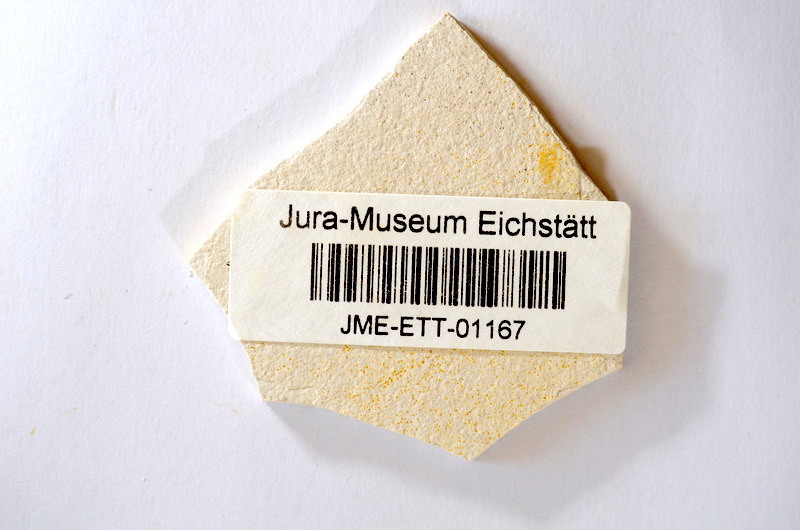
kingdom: Animalia
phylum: Chordata
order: Salmoniformes
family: Orthogonikleithridae
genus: Orthogonikleithrus
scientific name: Orthogonikleithrus hoelli
